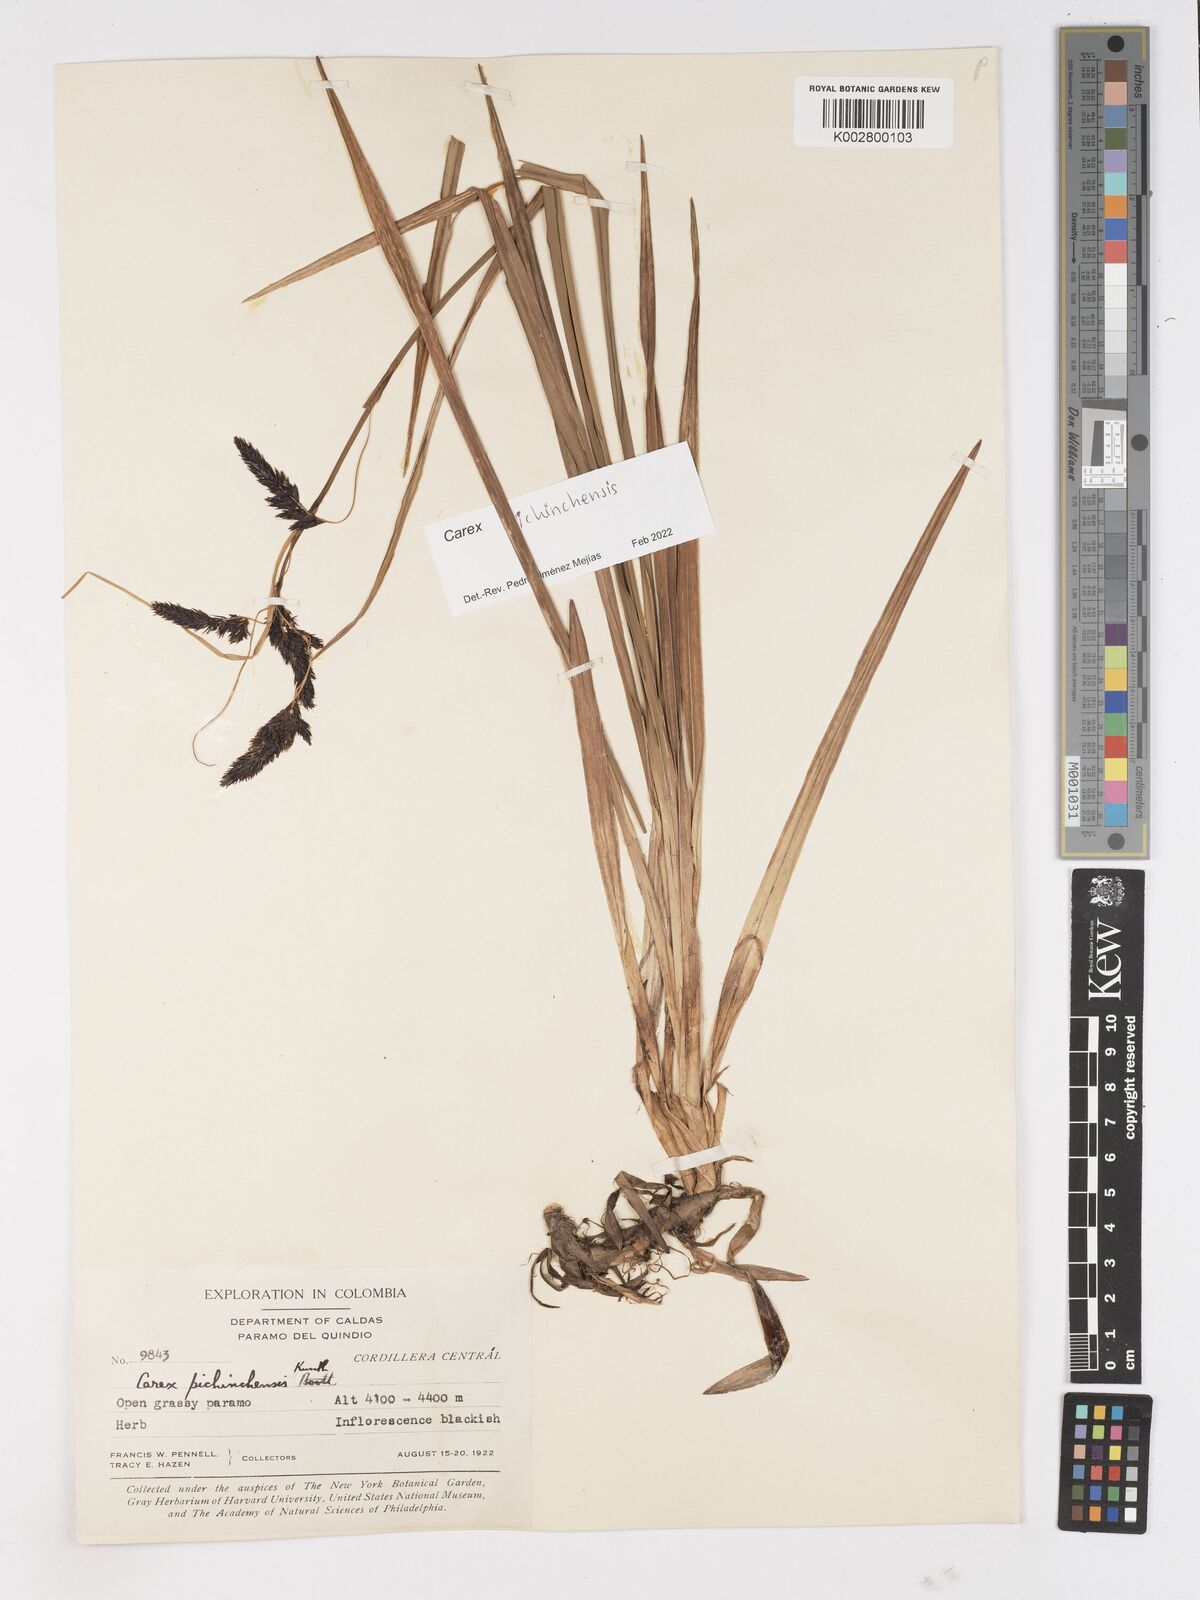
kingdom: Plantae
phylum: Tracheophyta
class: Liliopsida
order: Poales
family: Cyperaceae
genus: Carex
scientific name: Carex pichinchensis
